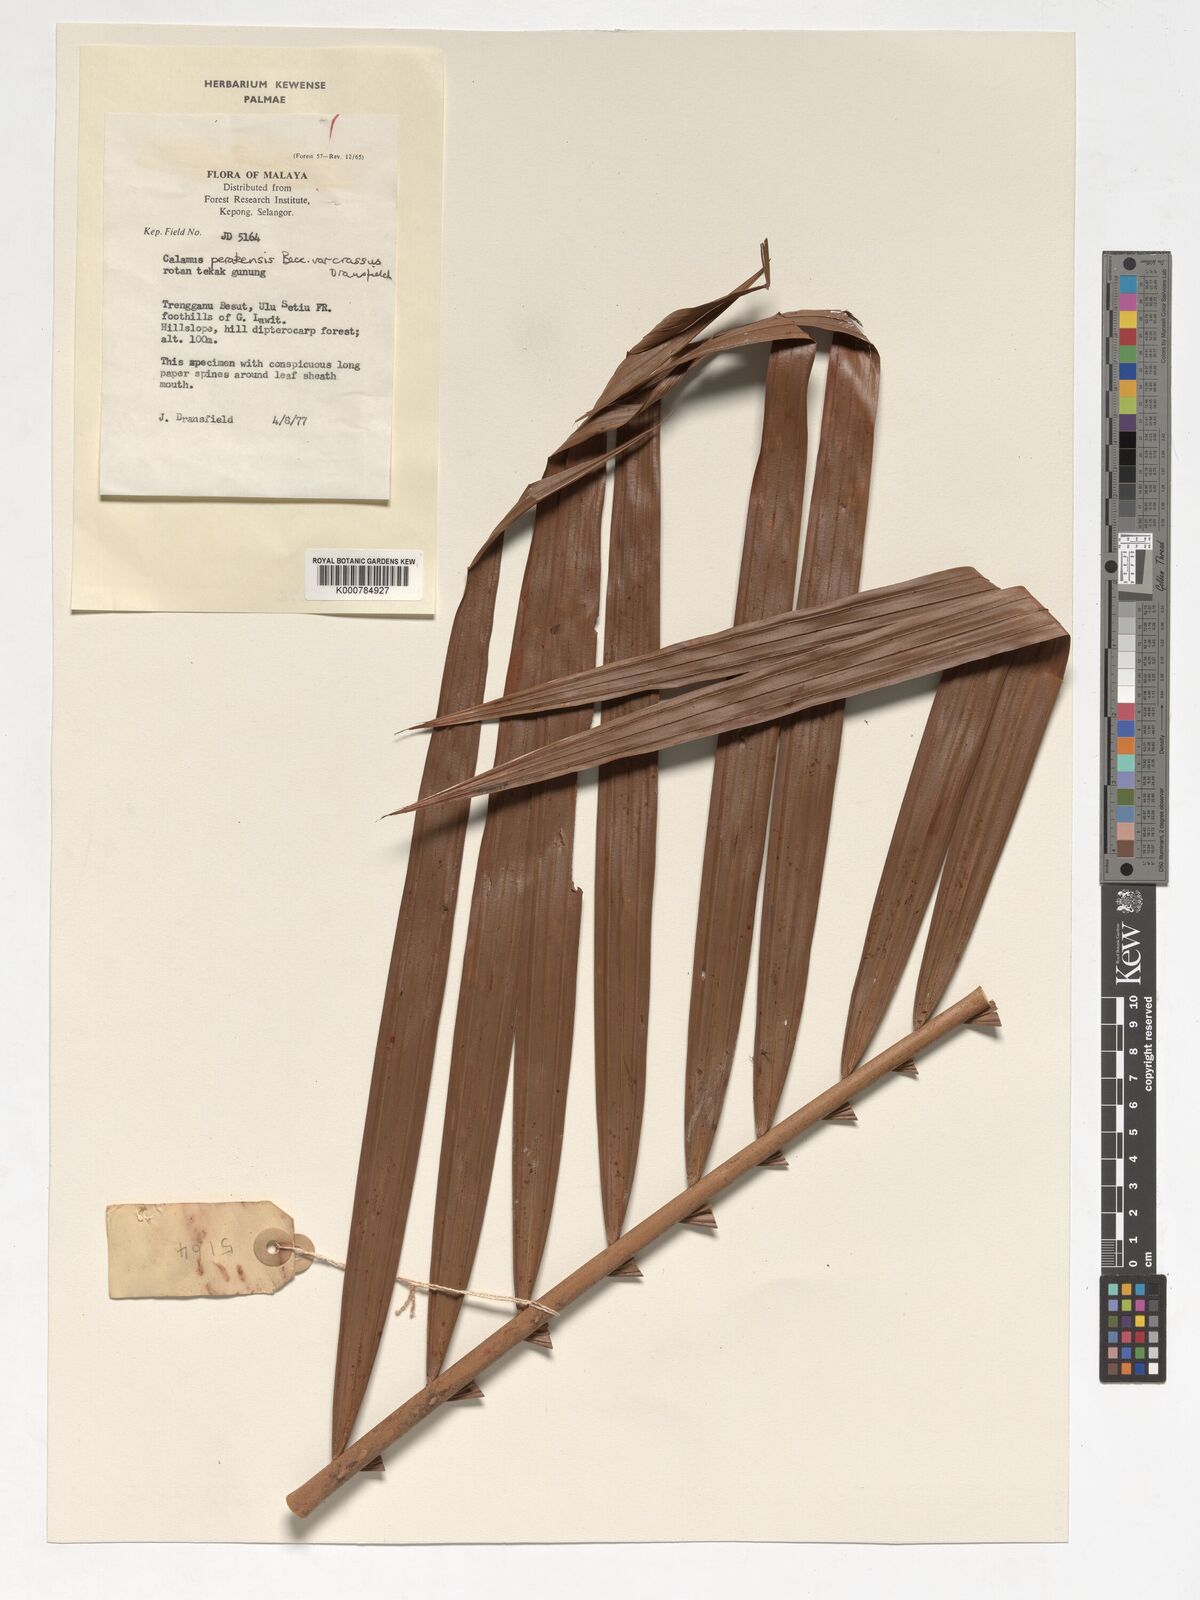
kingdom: Plantae
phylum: Tracheophyta
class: Liliopsida
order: Arecales
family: Arecaceae
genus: Calamus
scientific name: Calamus perakensis
